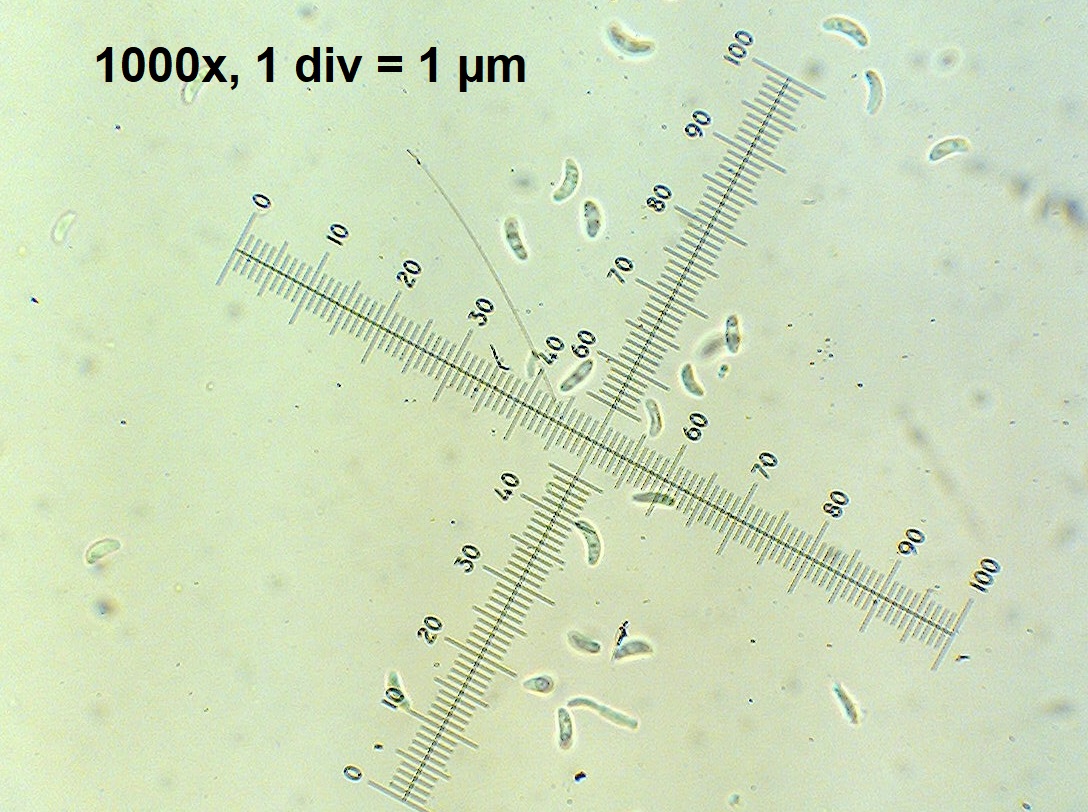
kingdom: Fungi
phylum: Ascomycota
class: Arthoniomycetes
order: Arthoniales
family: Opegraphaceae
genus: Opegrapha
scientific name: Opegrapha niveoatra
